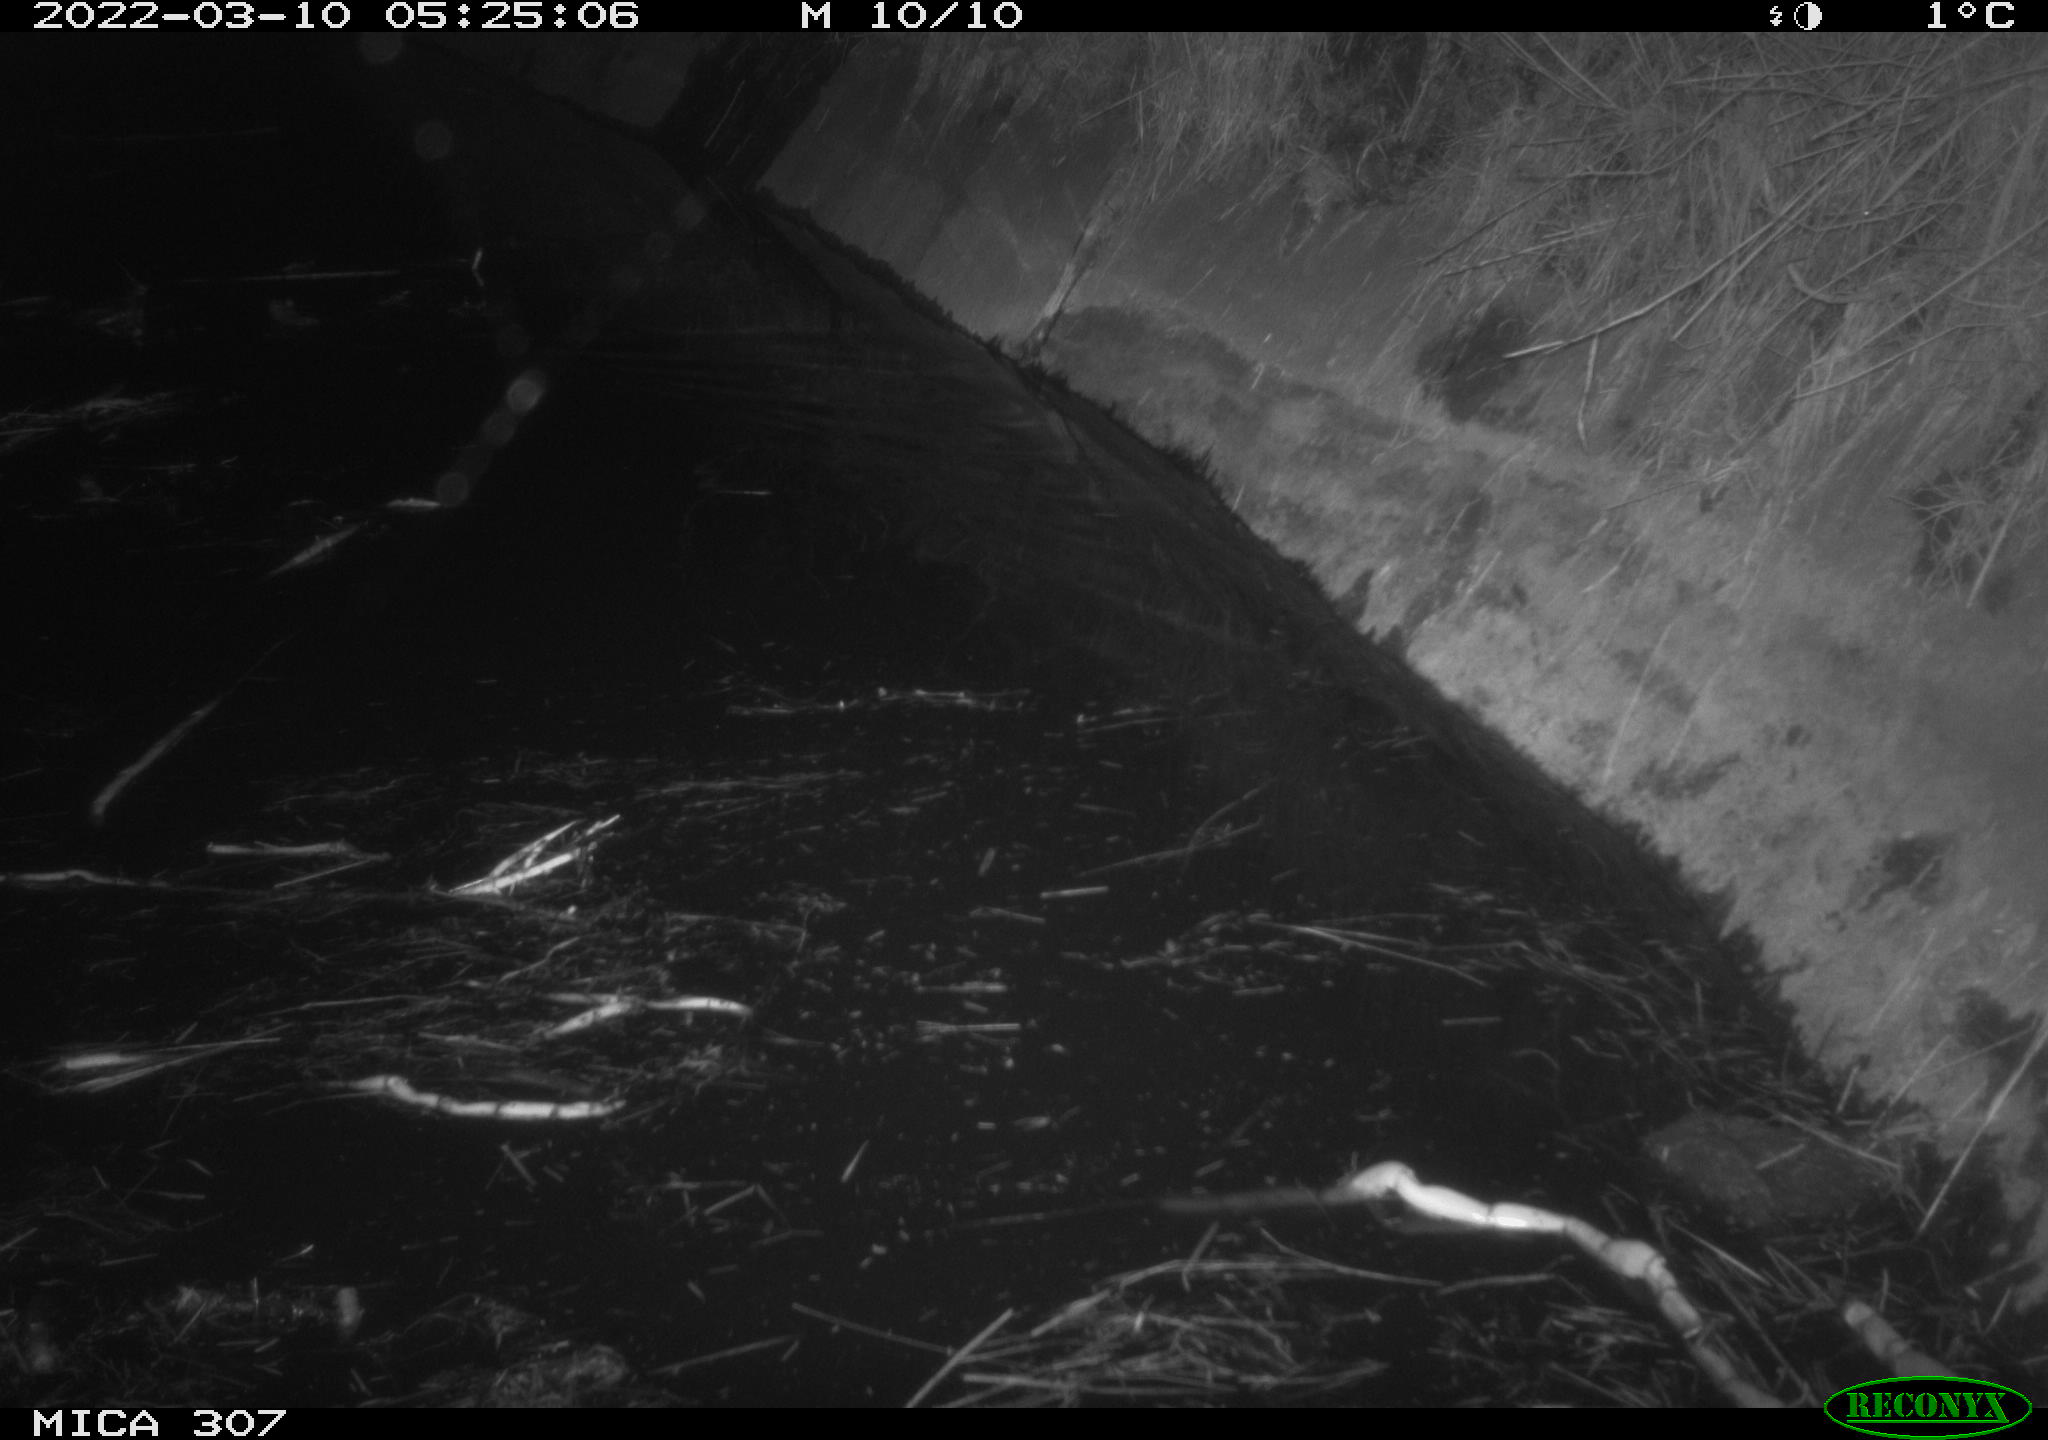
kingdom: Animalia
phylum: Chordata
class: Mammalia
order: Rodentia
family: Muridae
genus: Rattus
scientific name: Rattus norvegicus
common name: Brown rat
